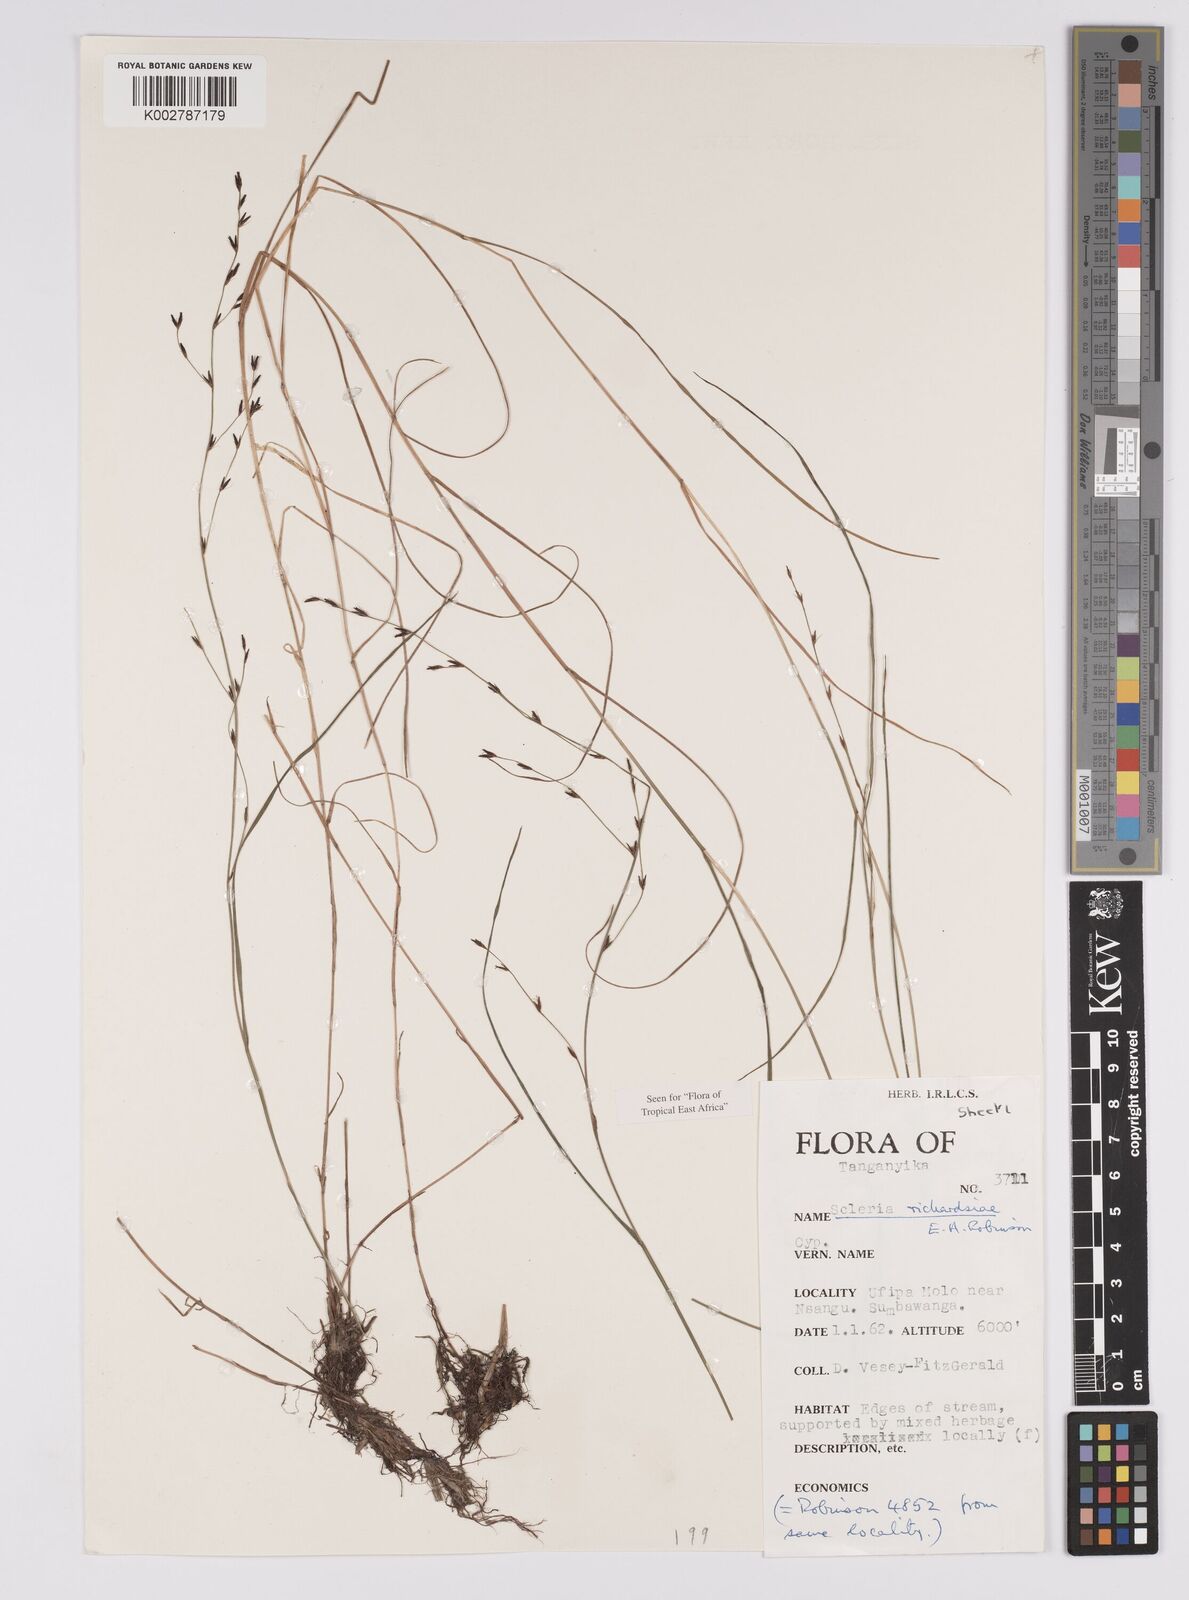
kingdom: Plantae
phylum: Tracheophyta
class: Liliopsida
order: Poales
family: Cyperaceae
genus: Scleria
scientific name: Scleria richardsiae
